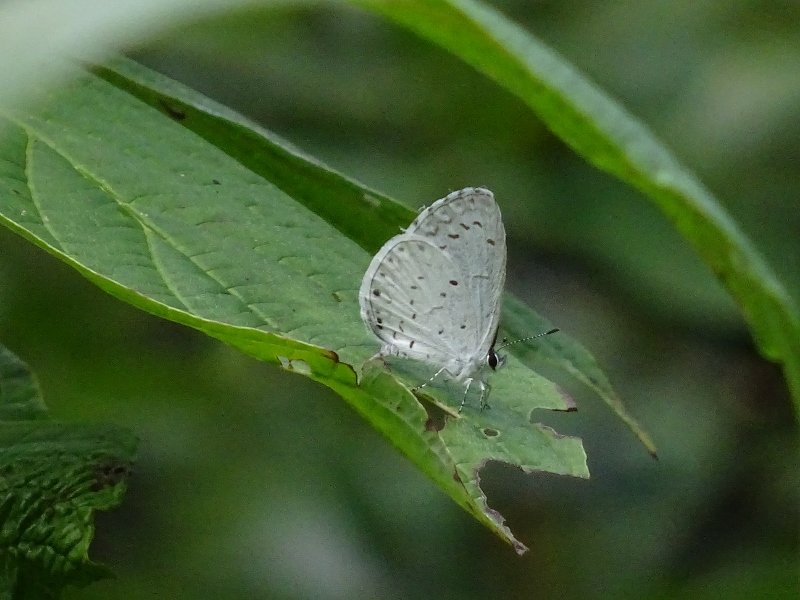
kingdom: Animalia
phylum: Arthropoda
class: Insecta
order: Lepidoptera
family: Lycaenidae
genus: Celastrina
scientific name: Celastrina
